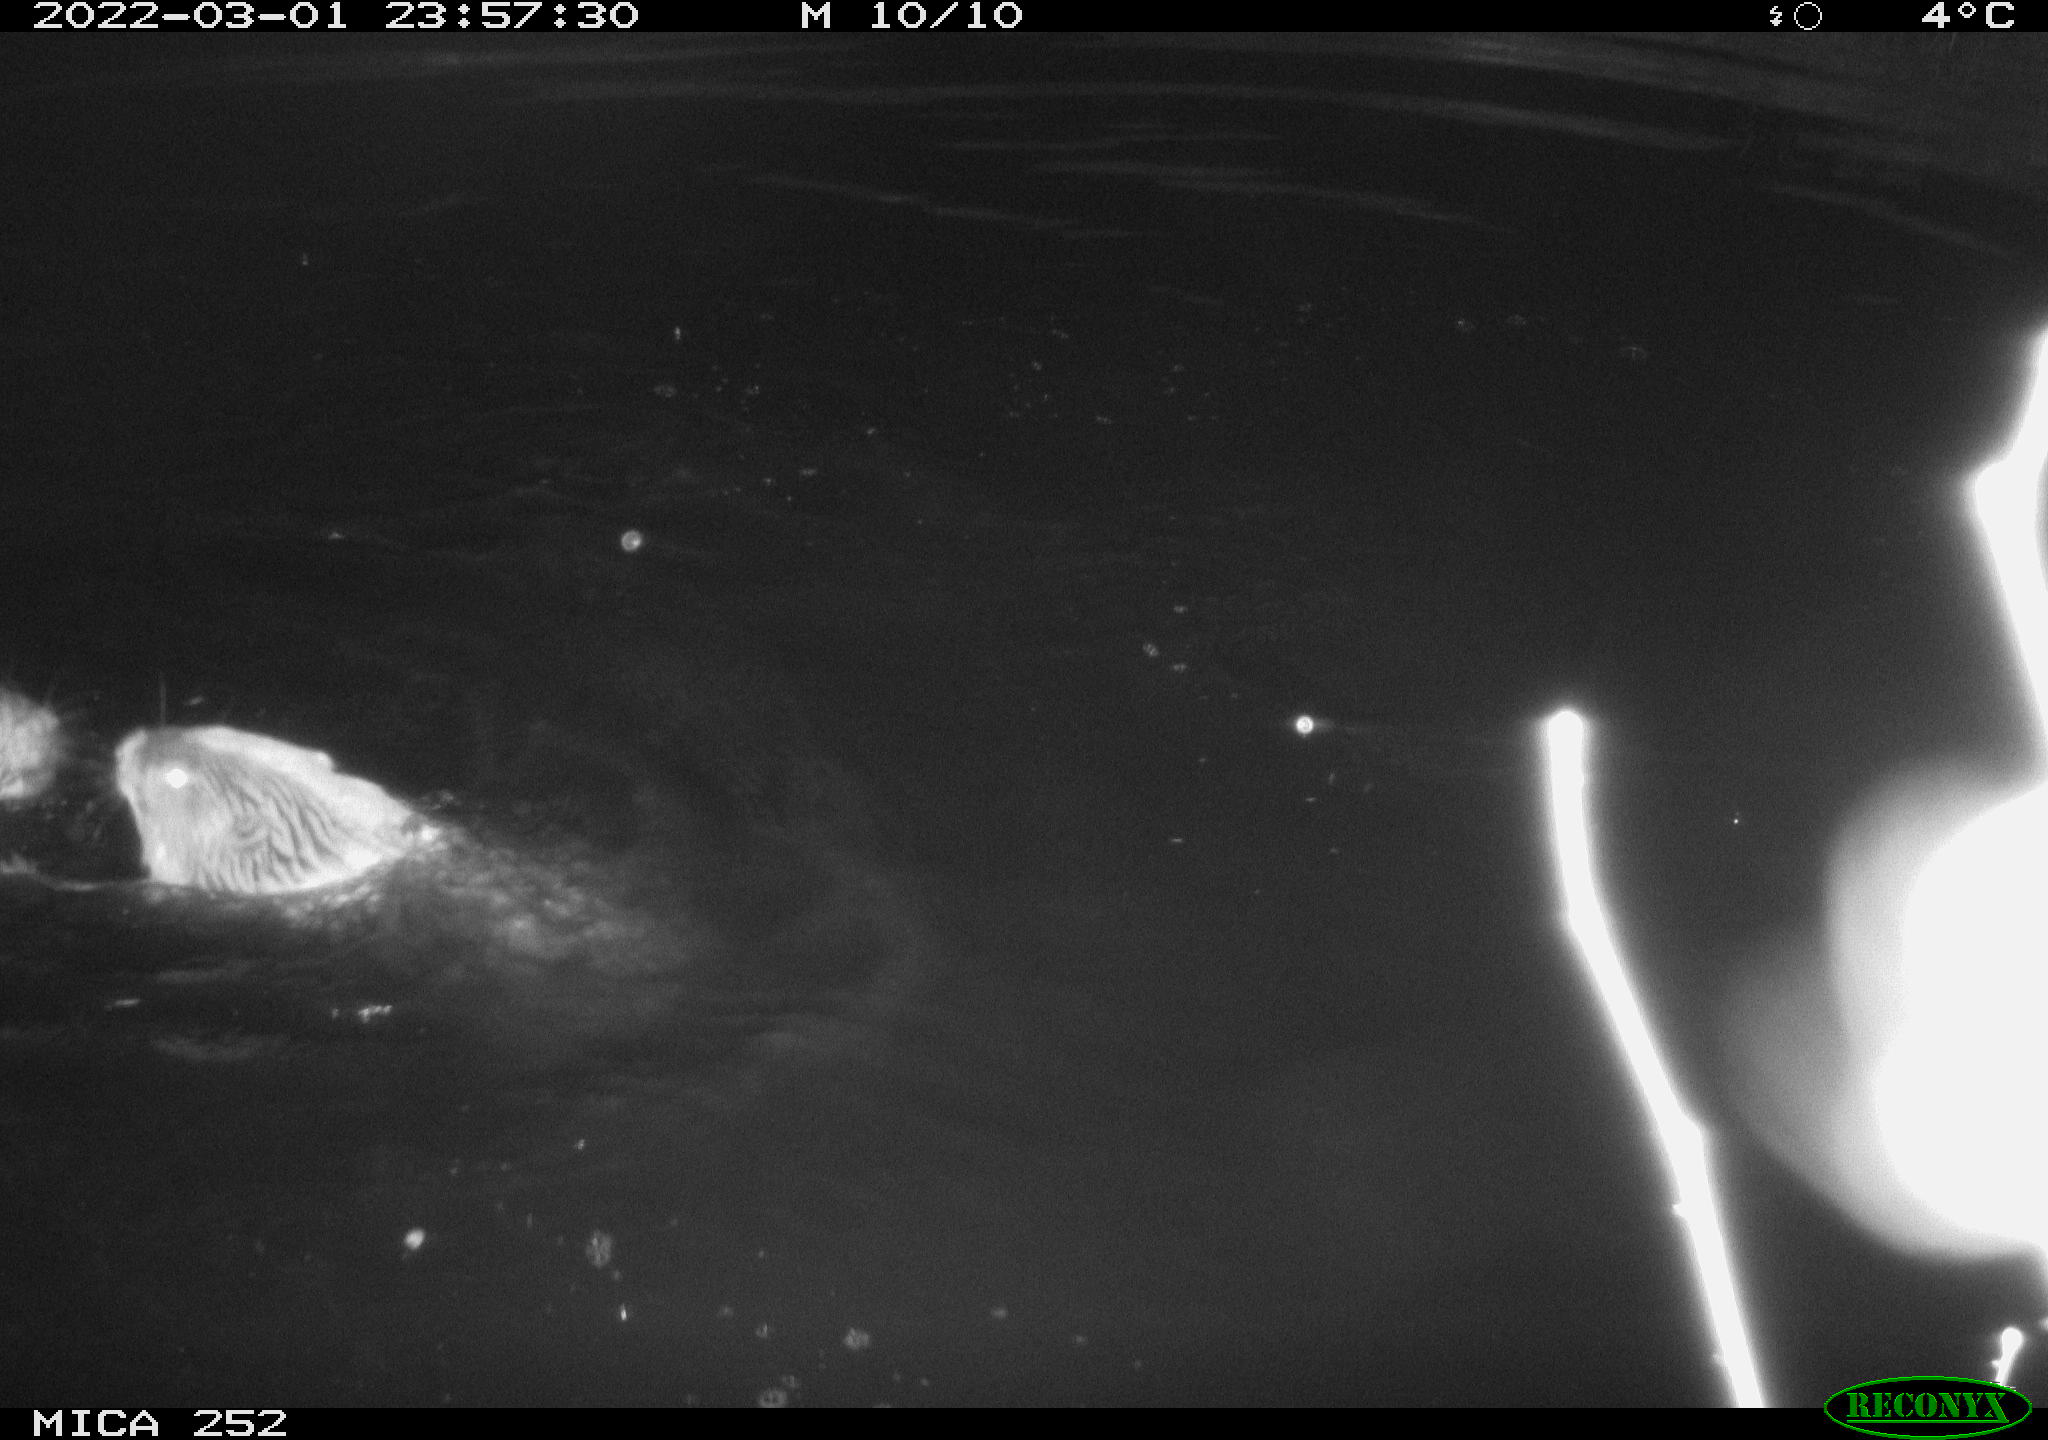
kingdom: Animalia
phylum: Chordata
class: Mammalia
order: Rodentia
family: Castoridae
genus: Castor
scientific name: Castor fiber
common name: Eurasian beaver
